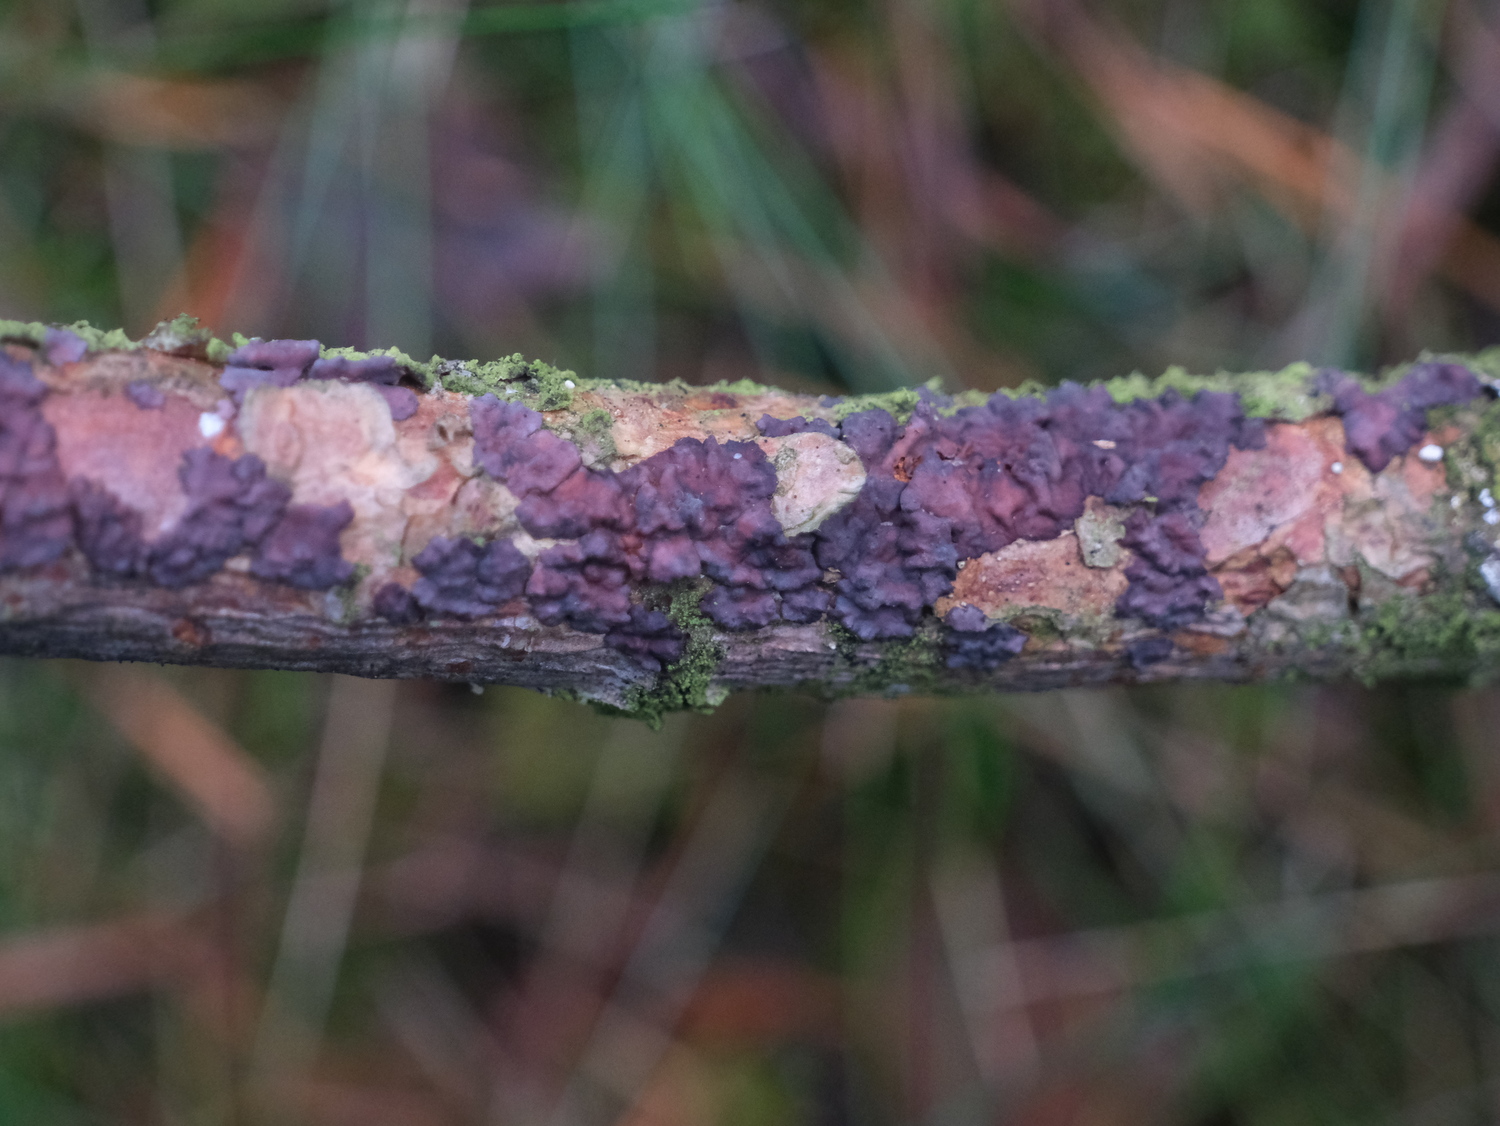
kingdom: Fungi
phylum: Basidiomycota
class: Agaricomycetes
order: Russulales
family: Peniophoraceae
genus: Peniophora
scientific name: Peniophora pini
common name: fyrre-voksskind
